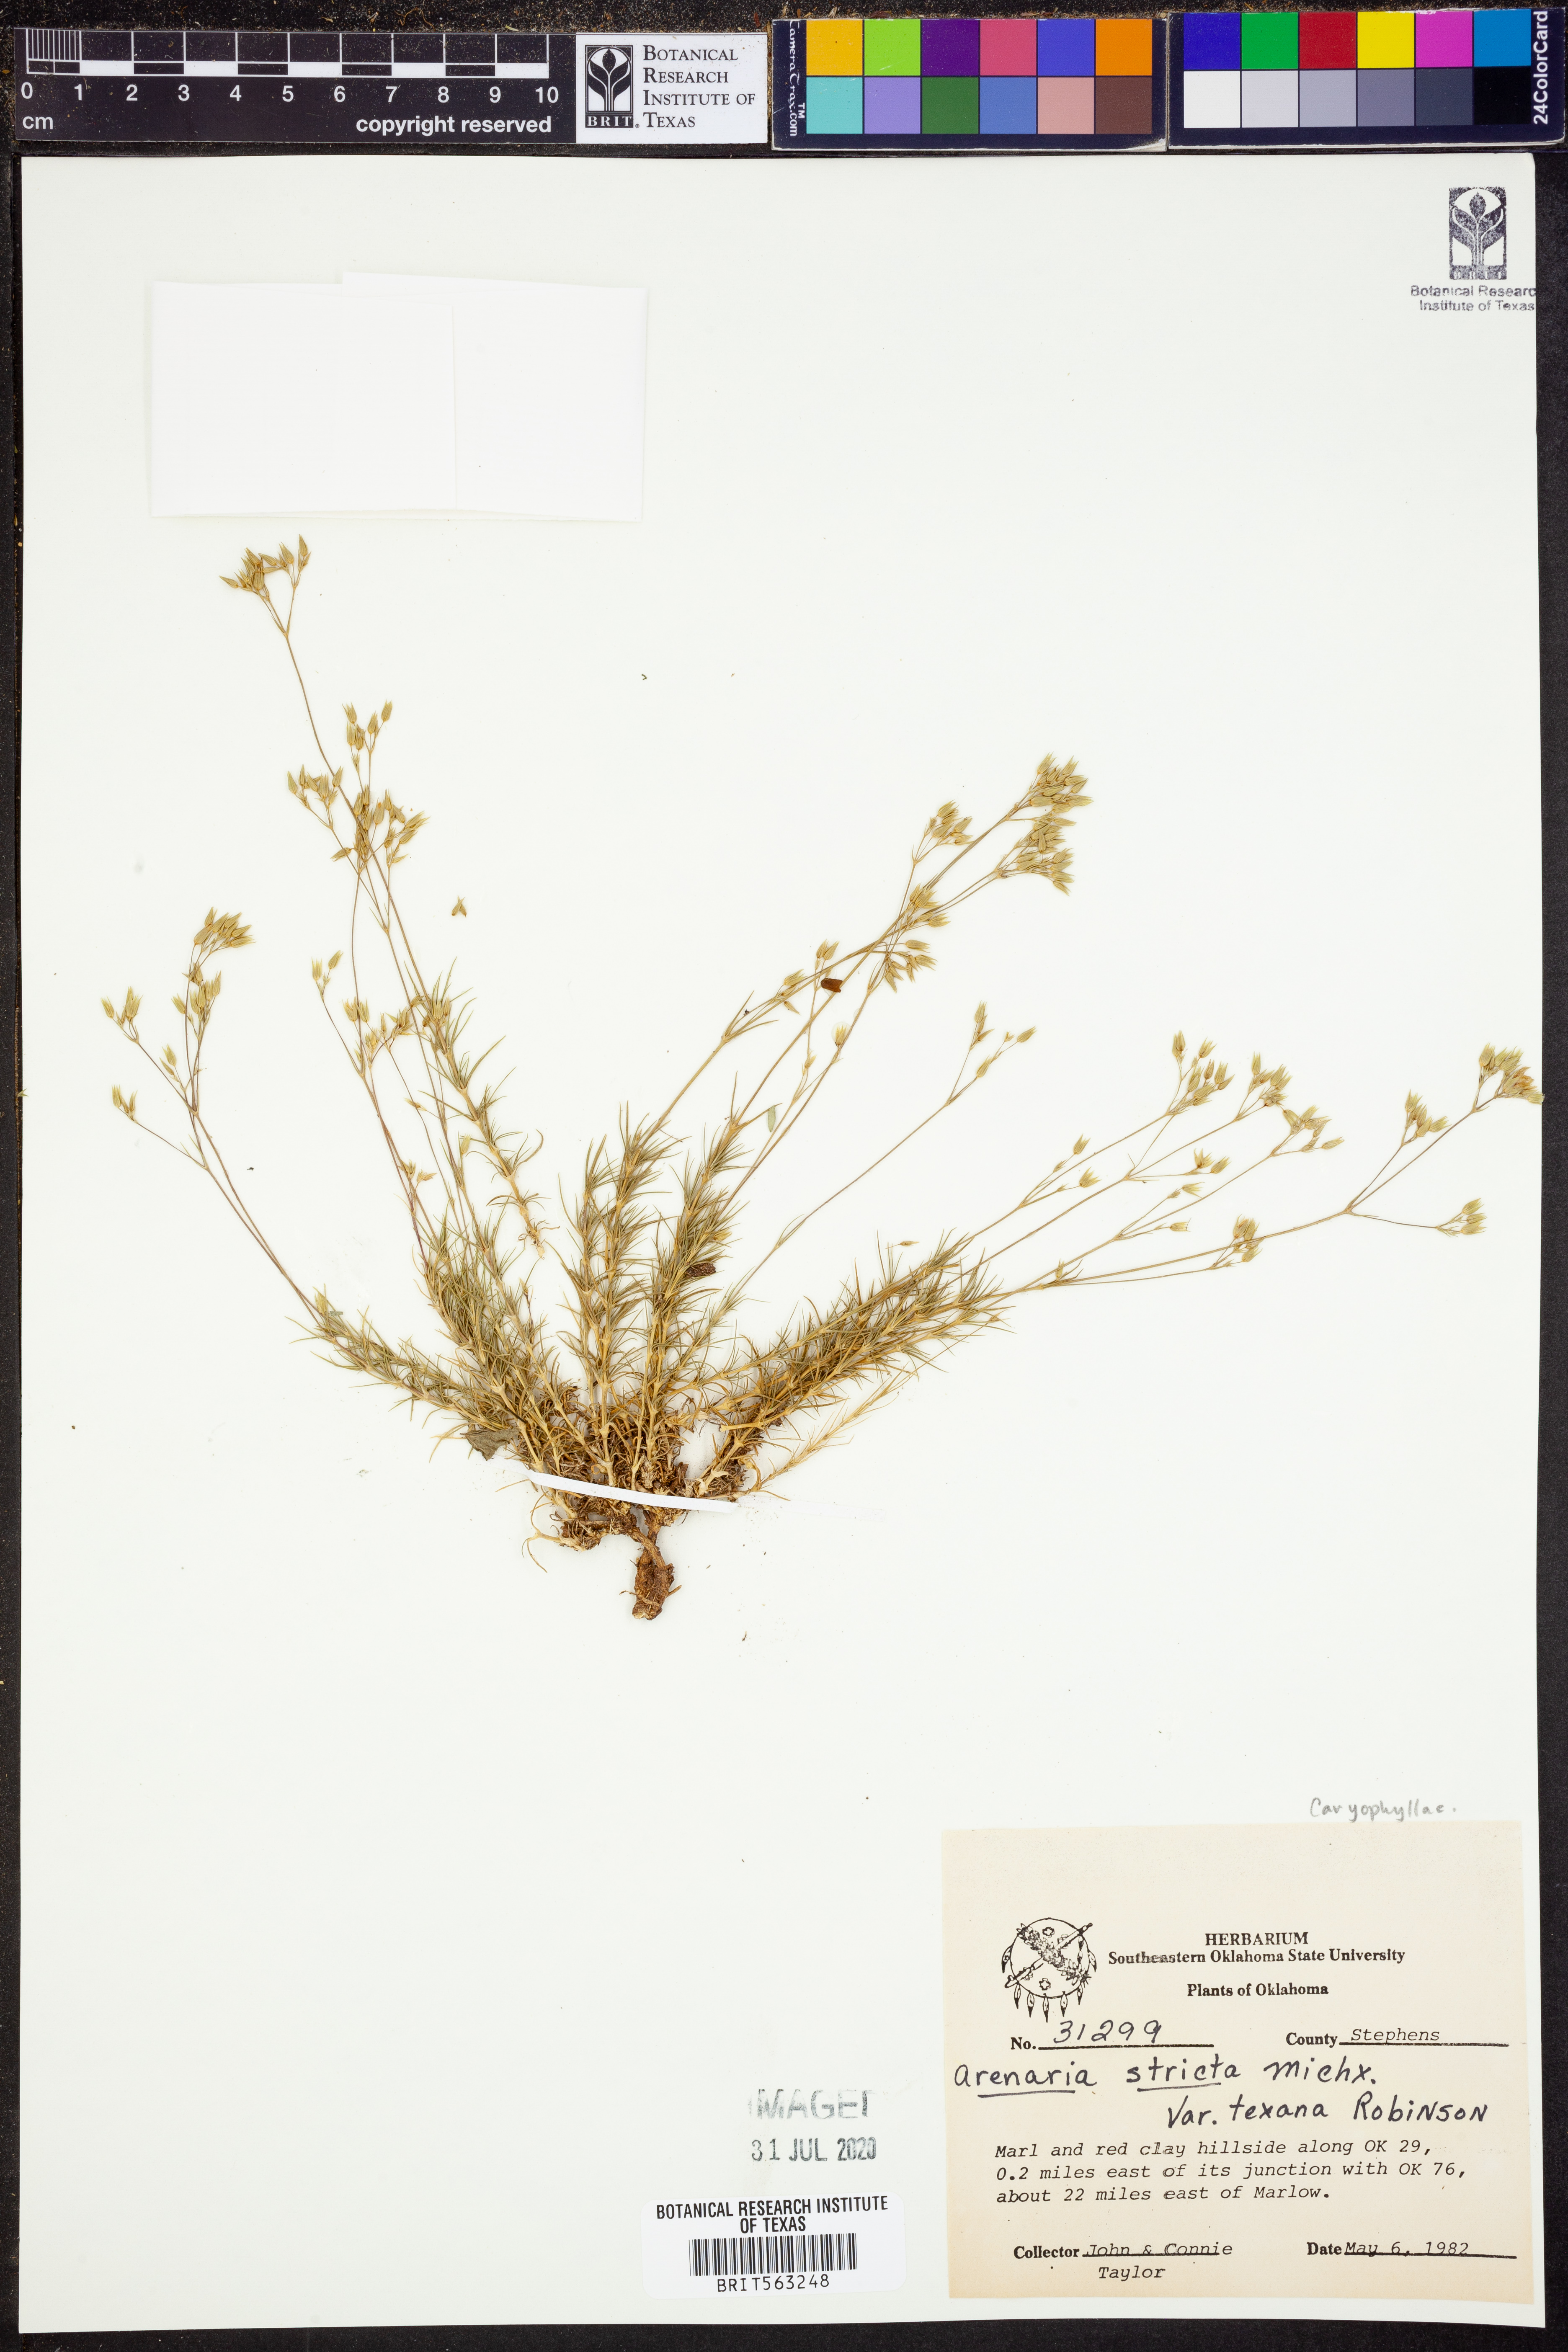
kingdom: Plantae
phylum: Tracheophyta
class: Magnoliopsida
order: Caryophyllales
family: Caryophyllaceae
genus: Sabulina
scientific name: Sabulina michauxii
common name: Michaux's stitchwort
